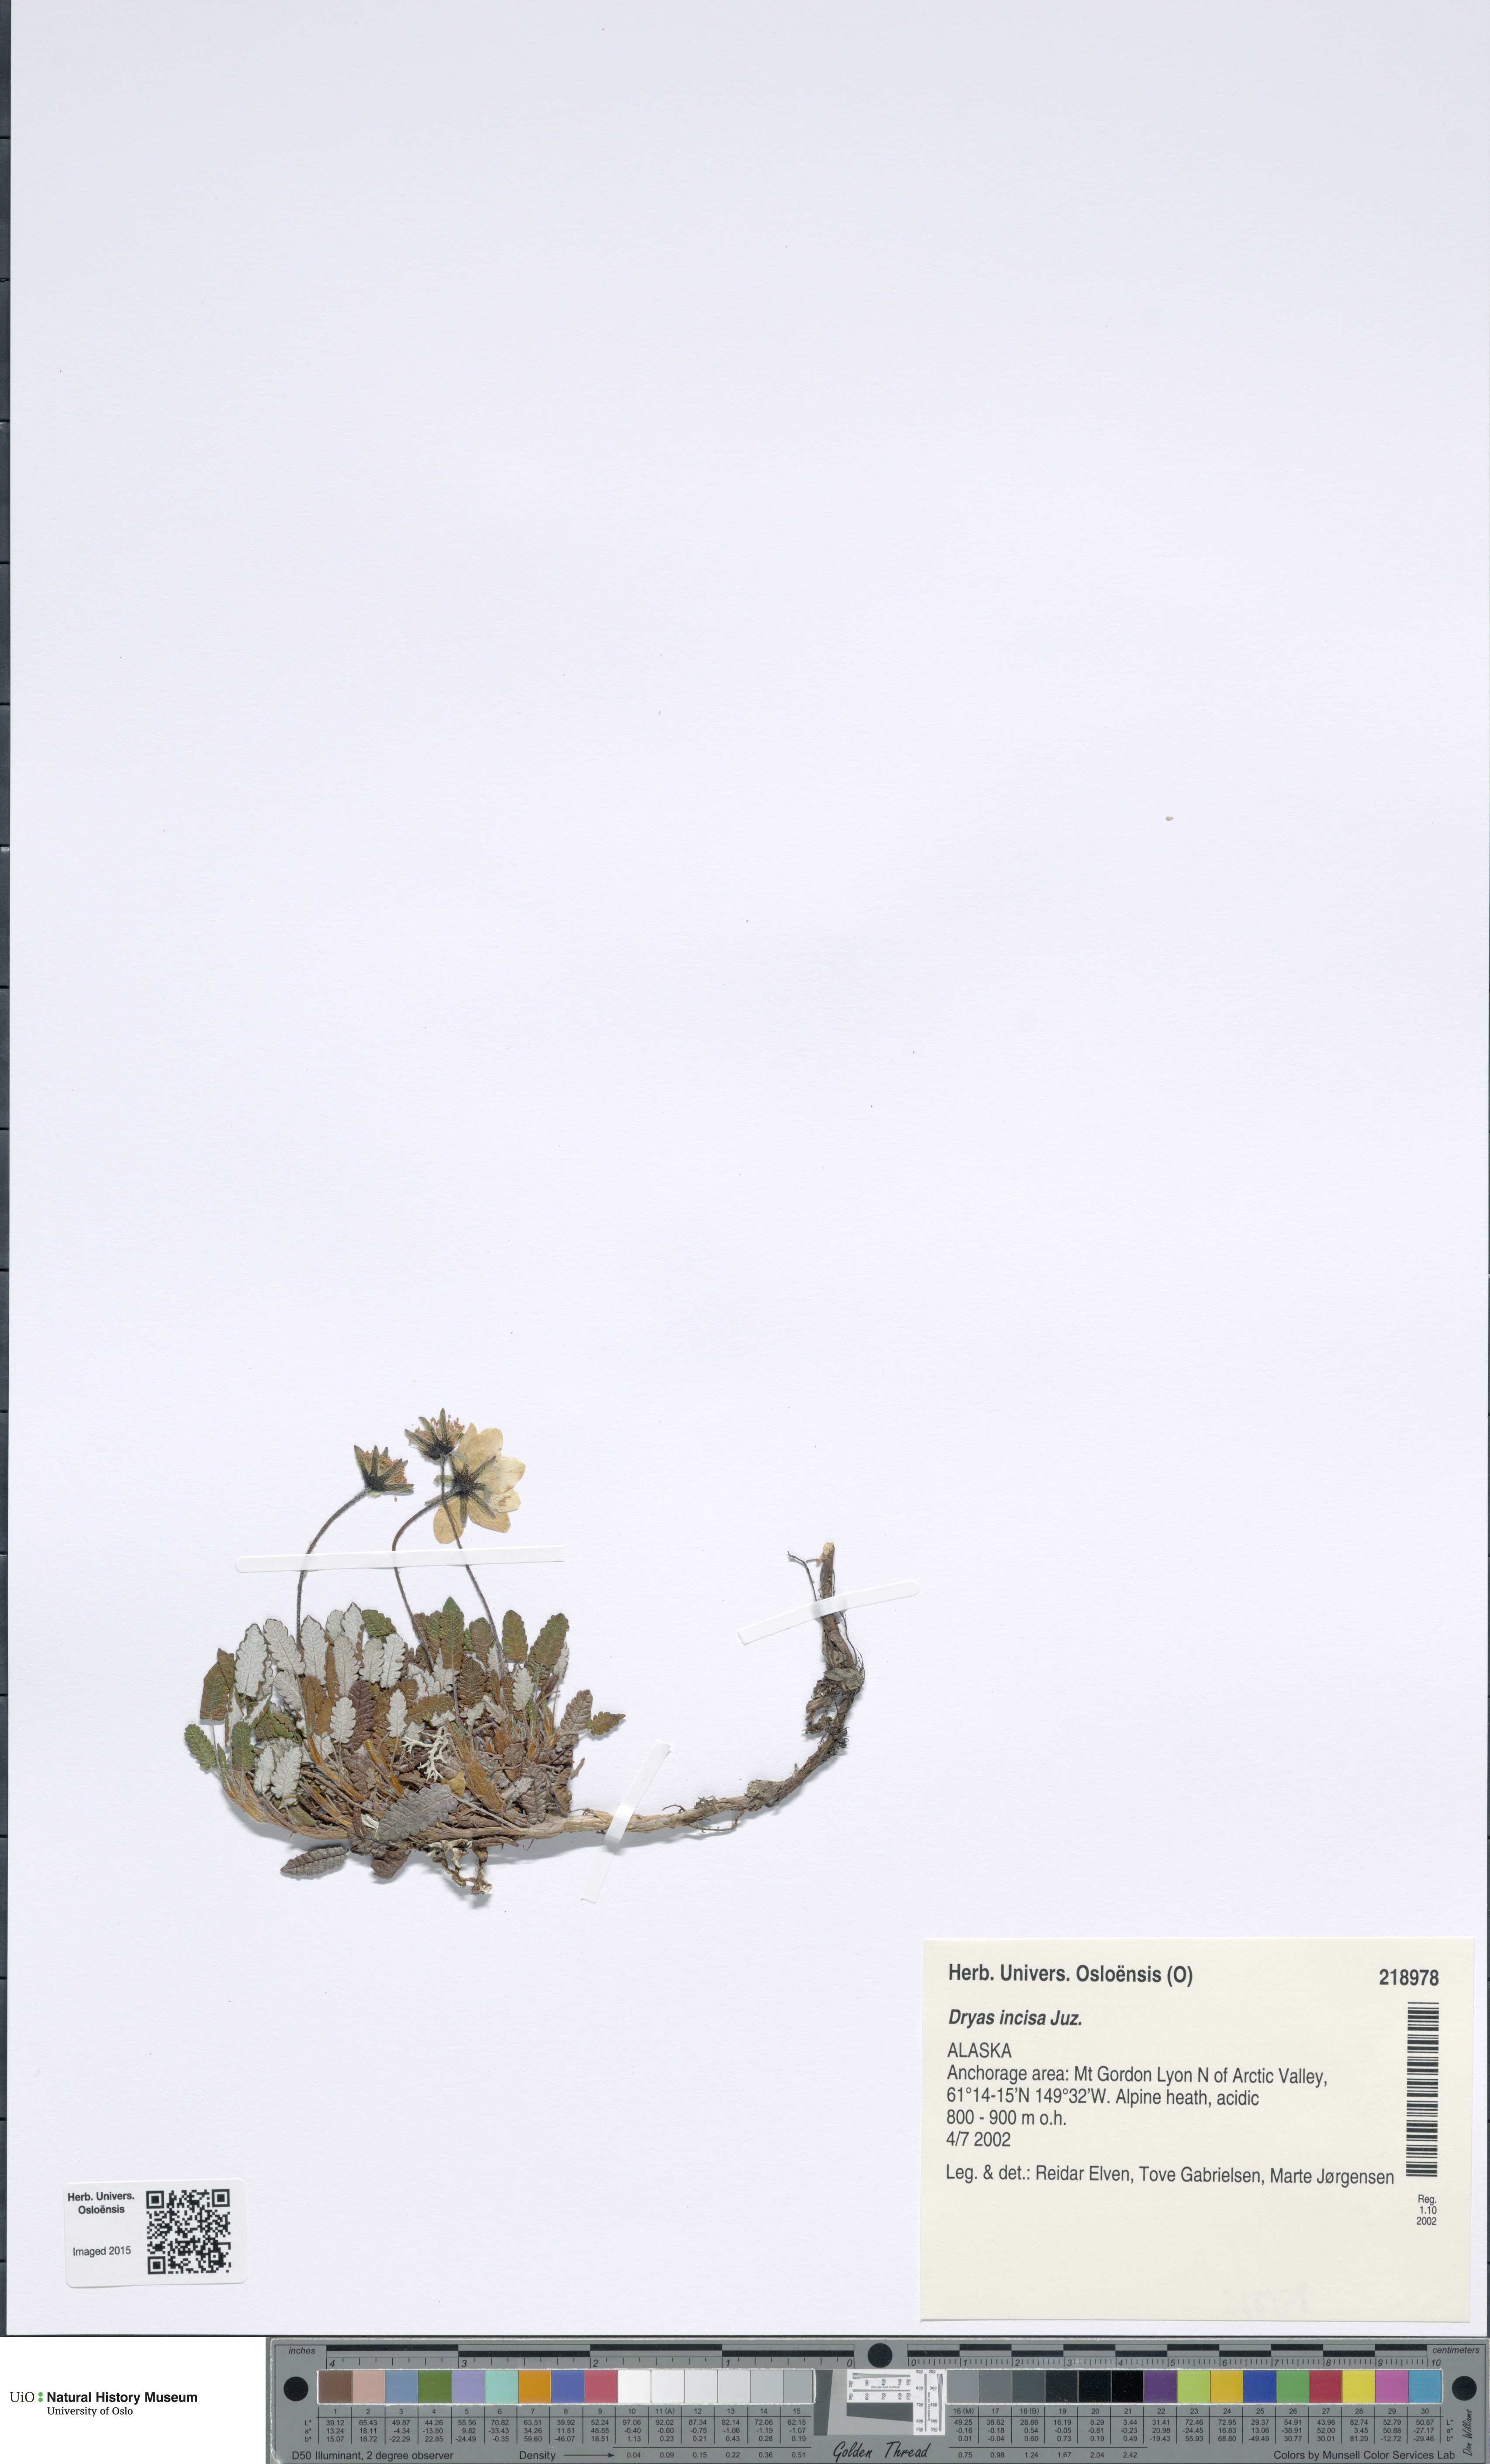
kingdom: Plantae
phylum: Tracheophyta
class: Magnoliopsida
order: Rosales
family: Rosaceae
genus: Dryas
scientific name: Dryas octopetala
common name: Eight-petal mountain-avens
